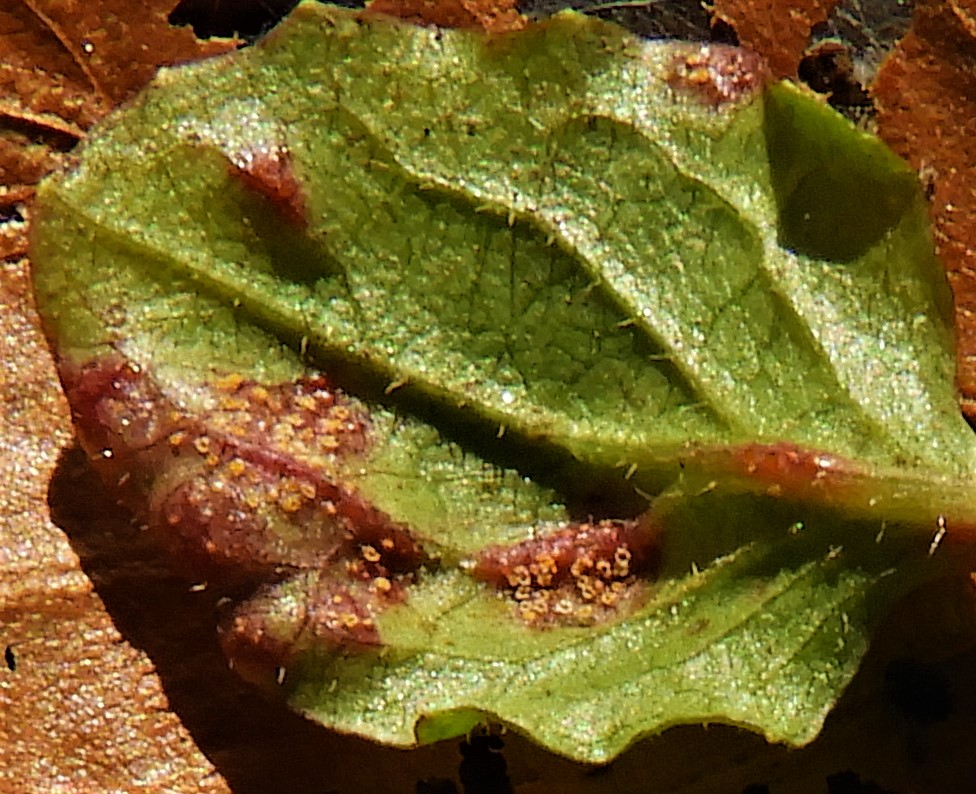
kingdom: Fungi
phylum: Basidiomycota
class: Pucciniomycetes
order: Pucciniales
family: Pucciniaceae
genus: Puccinia
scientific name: Puccinia
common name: tvecellerust
